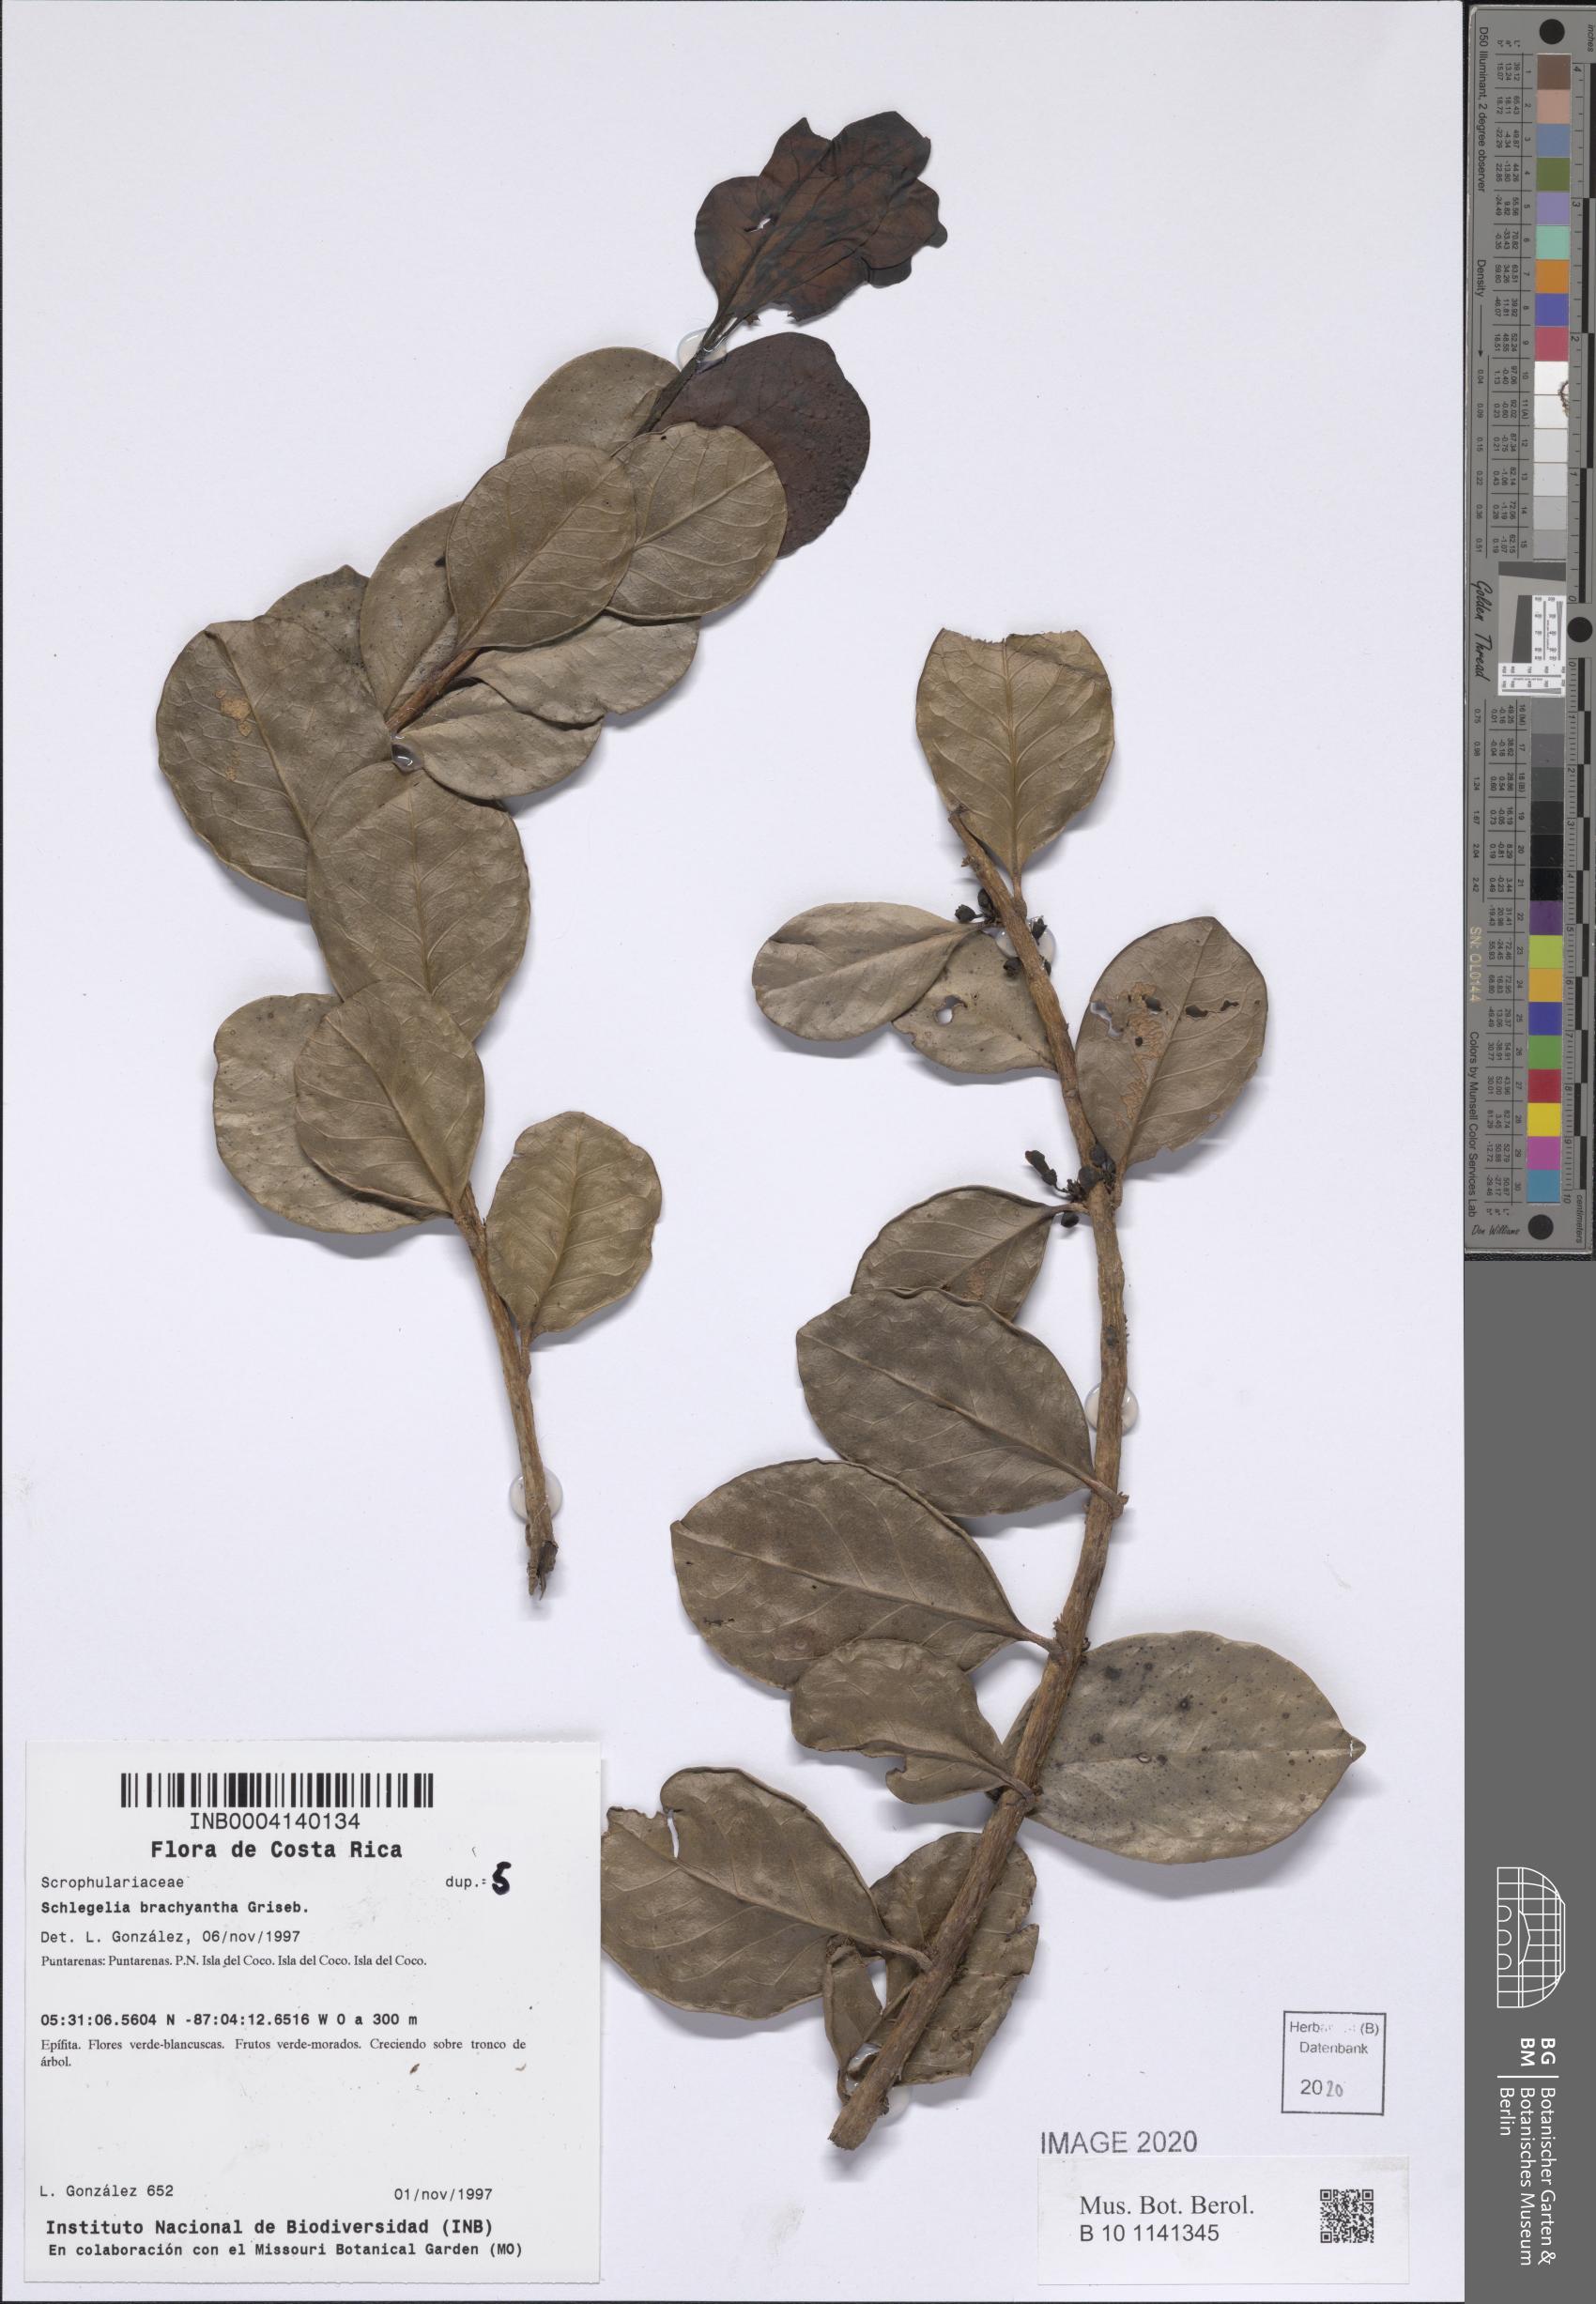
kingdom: Plantae
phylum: Tracheophyta
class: Magnoliopsida
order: Lamiales
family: Schlegeliaceae
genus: Schlegelia
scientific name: Schlegelia brachyantha
